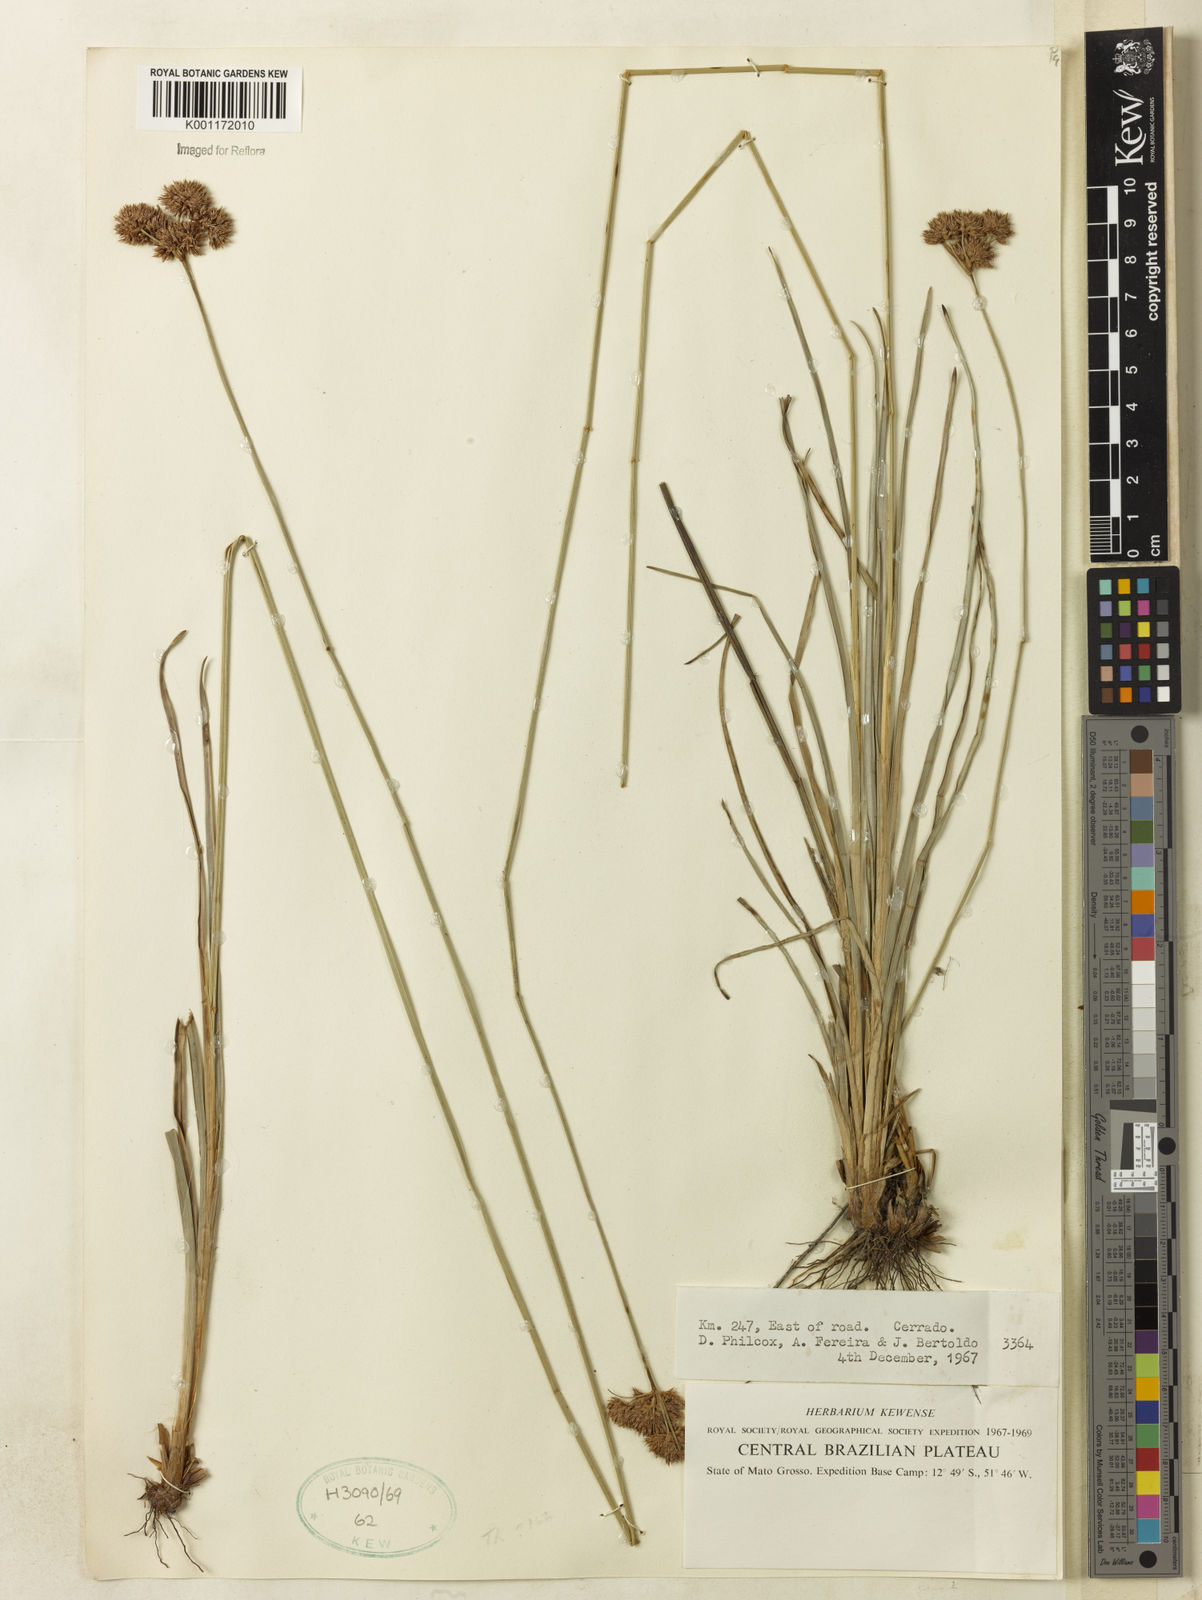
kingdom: Plantae
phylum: Tracheophyta
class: Liliopsida
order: Poales
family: Cyperaceae
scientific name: Cyperaceae
